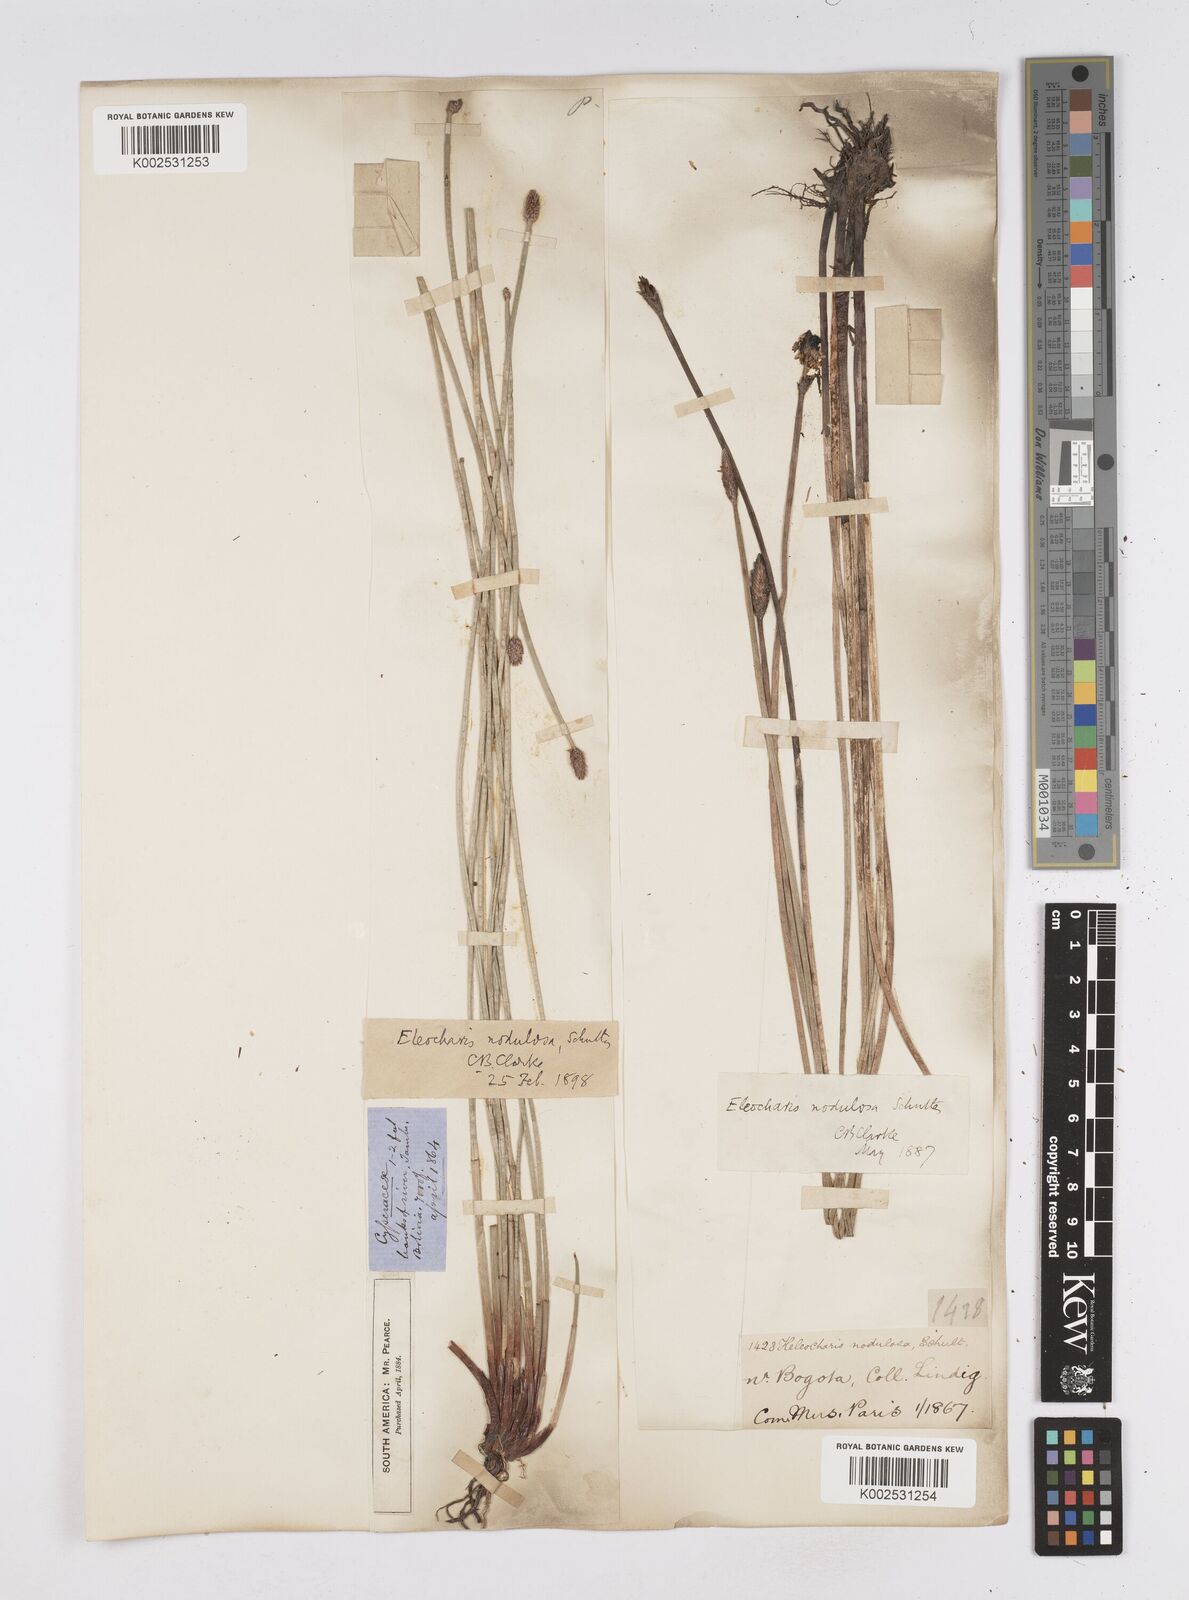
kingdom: Plantae
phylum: Tracheophyta
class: Liliopsida
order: Poales
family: Cyperaceae
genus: Eleocharis
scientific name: Eleocharis montana
